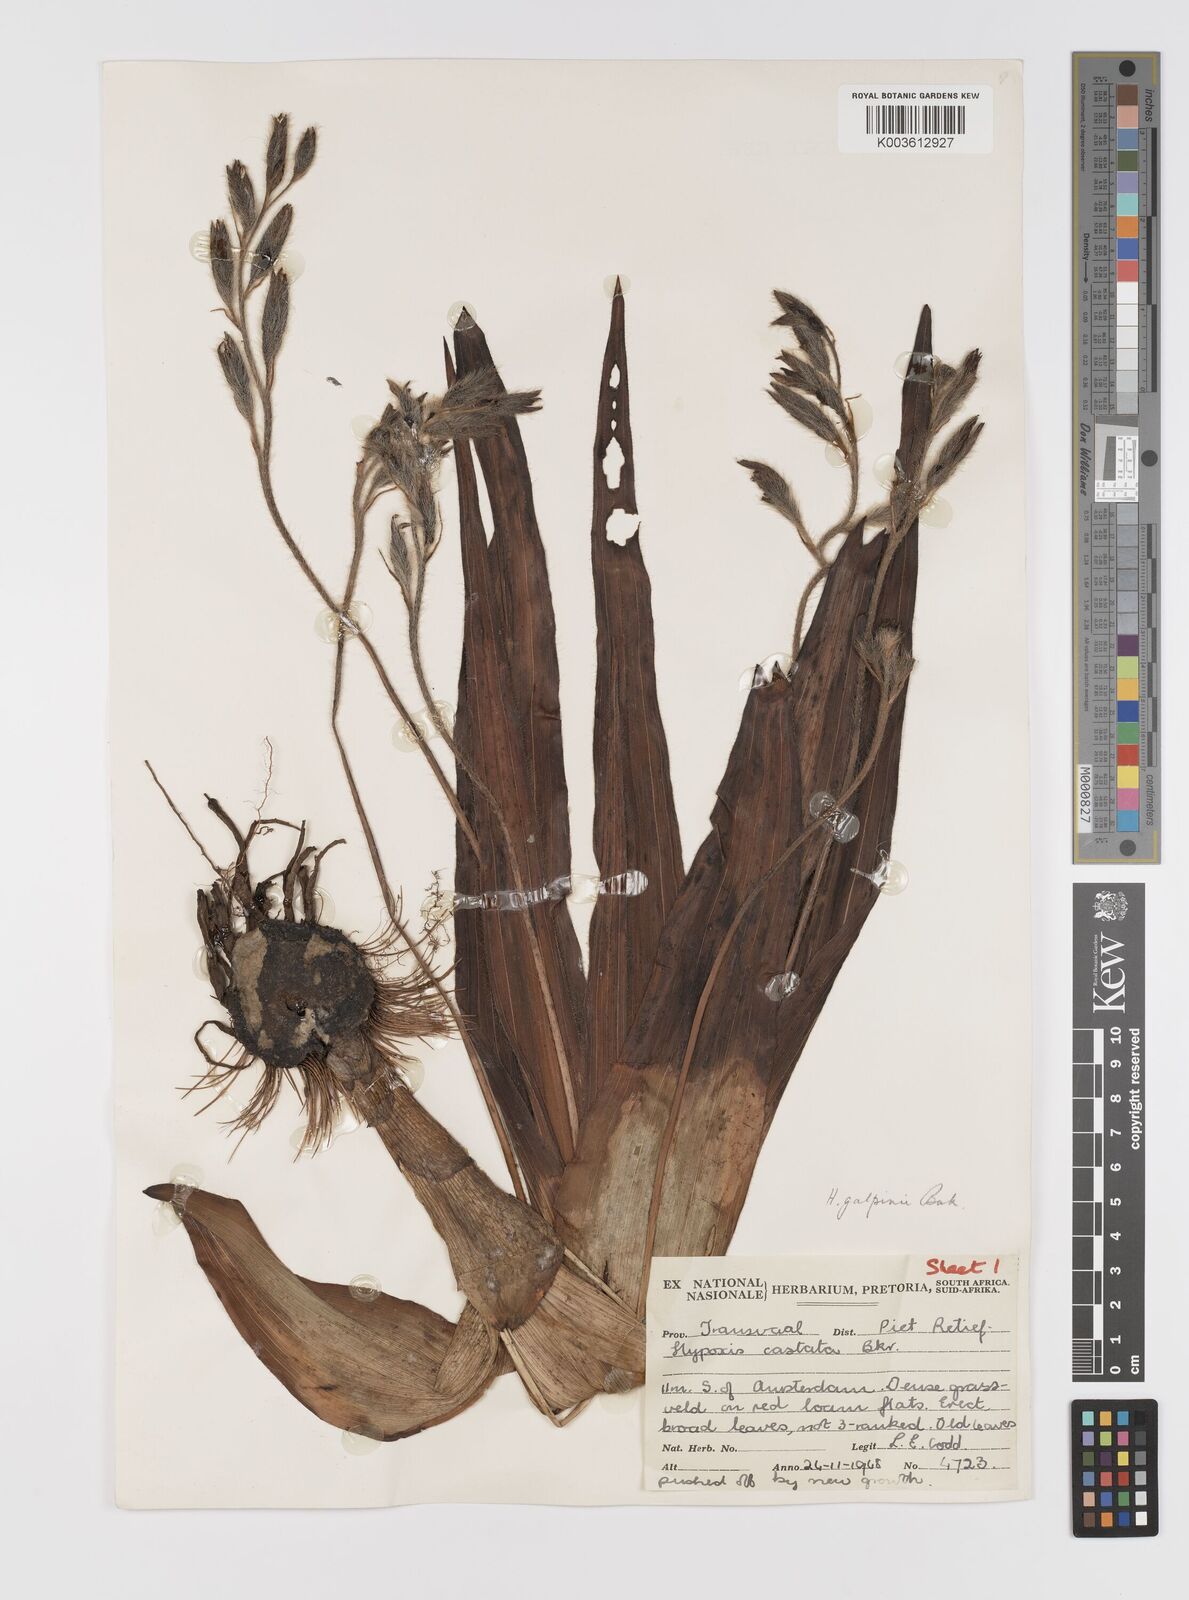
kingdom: Plantae
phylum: Tracheophyta
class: Liliopsida
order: Asparagales
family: Hypoxidaceae
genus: Hypoxis
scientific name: Hypoxis galpinii
